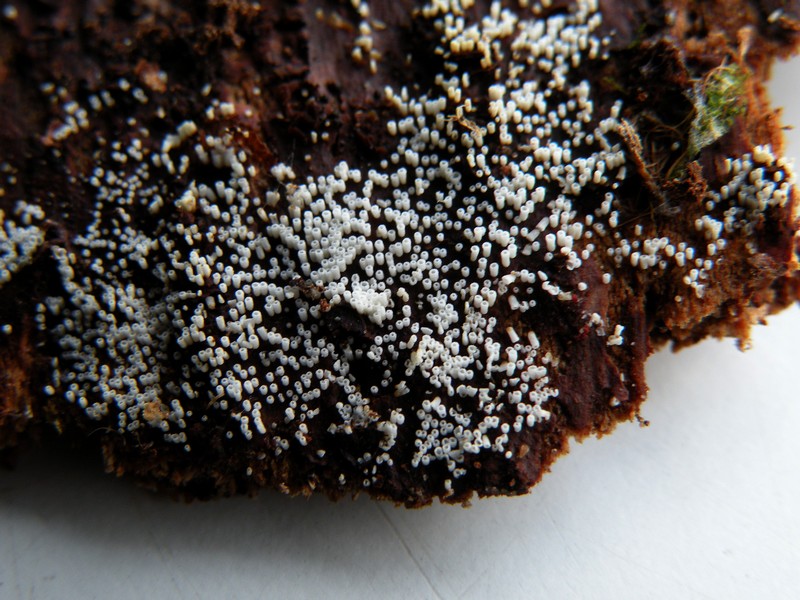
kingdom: Fungi
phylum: Basidiomycota
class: Agaricomycetes
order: Agaricales
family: Marasmiaceae
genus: Henningsomyces
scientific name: Henningsomyces candidus
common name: glat hængerør
